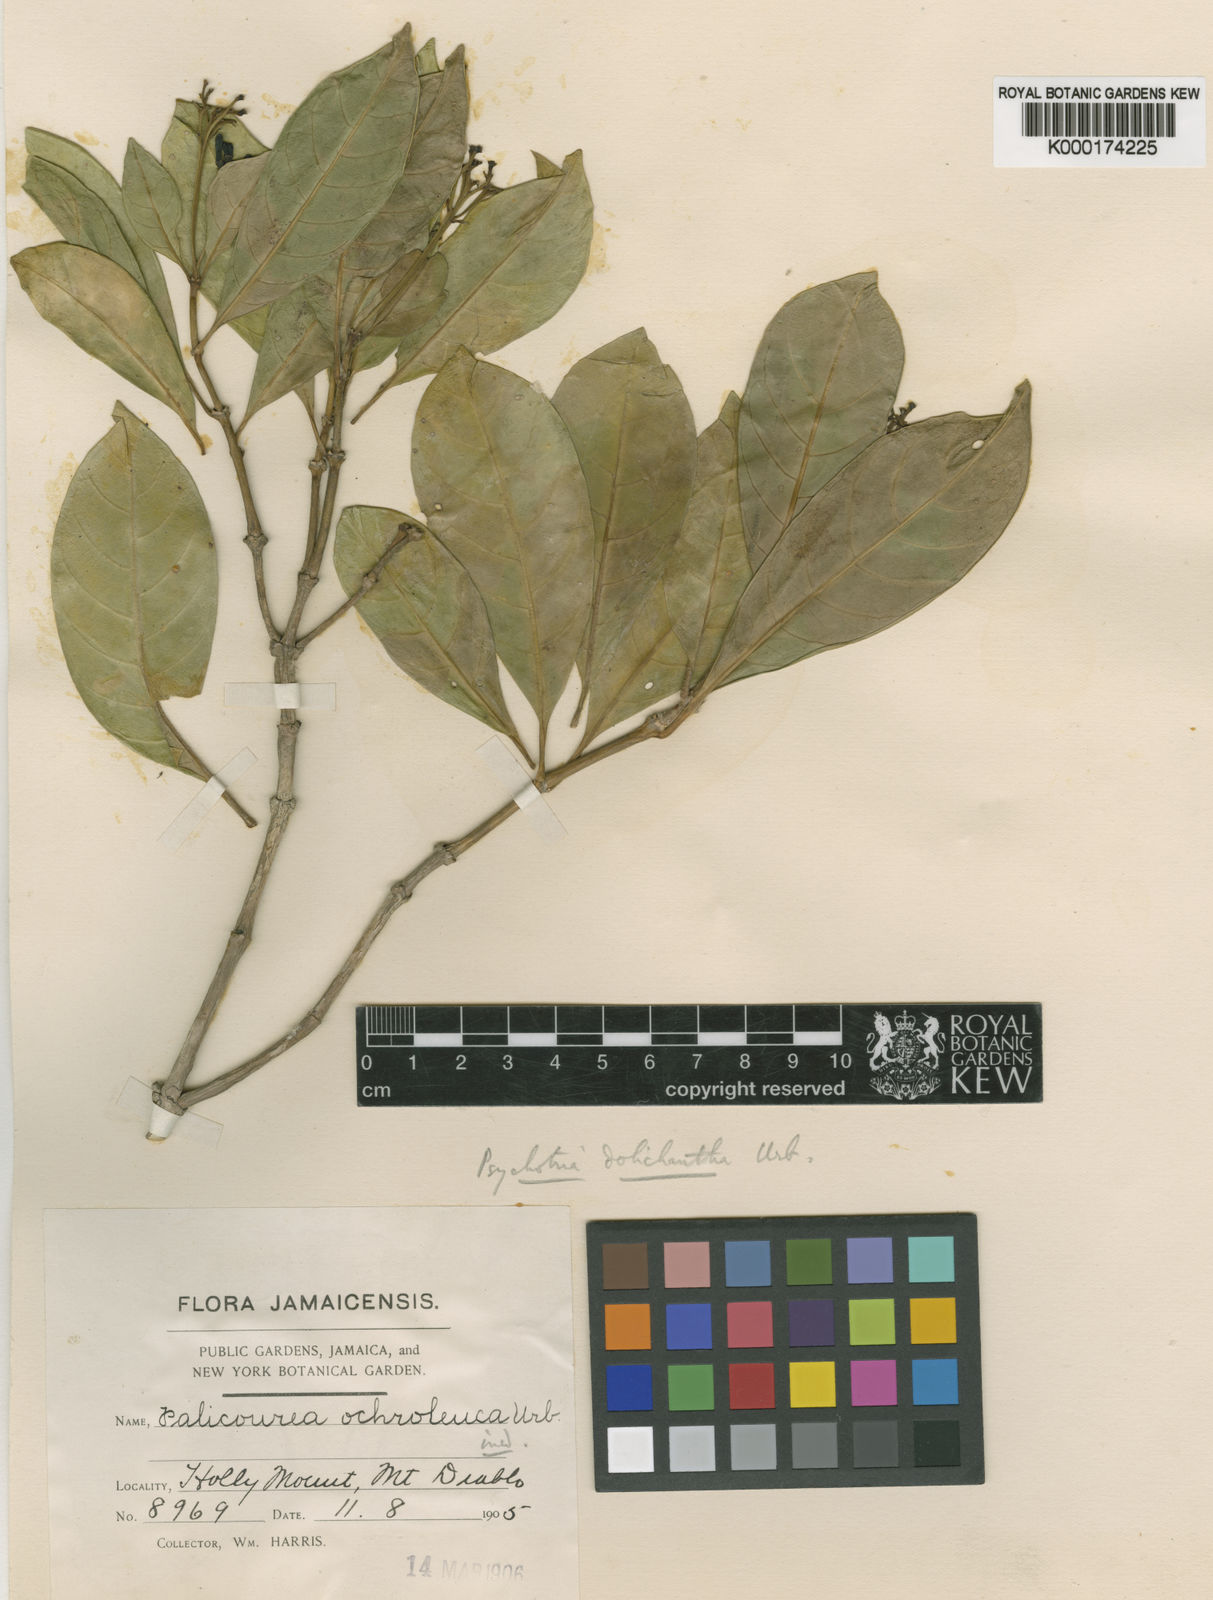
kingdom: Plantae
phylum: Tracheophyta
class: Magnoliopsida
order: Gentianales
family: Rubiaceae
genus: Palicourea
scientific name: Palicourea dolichantha
